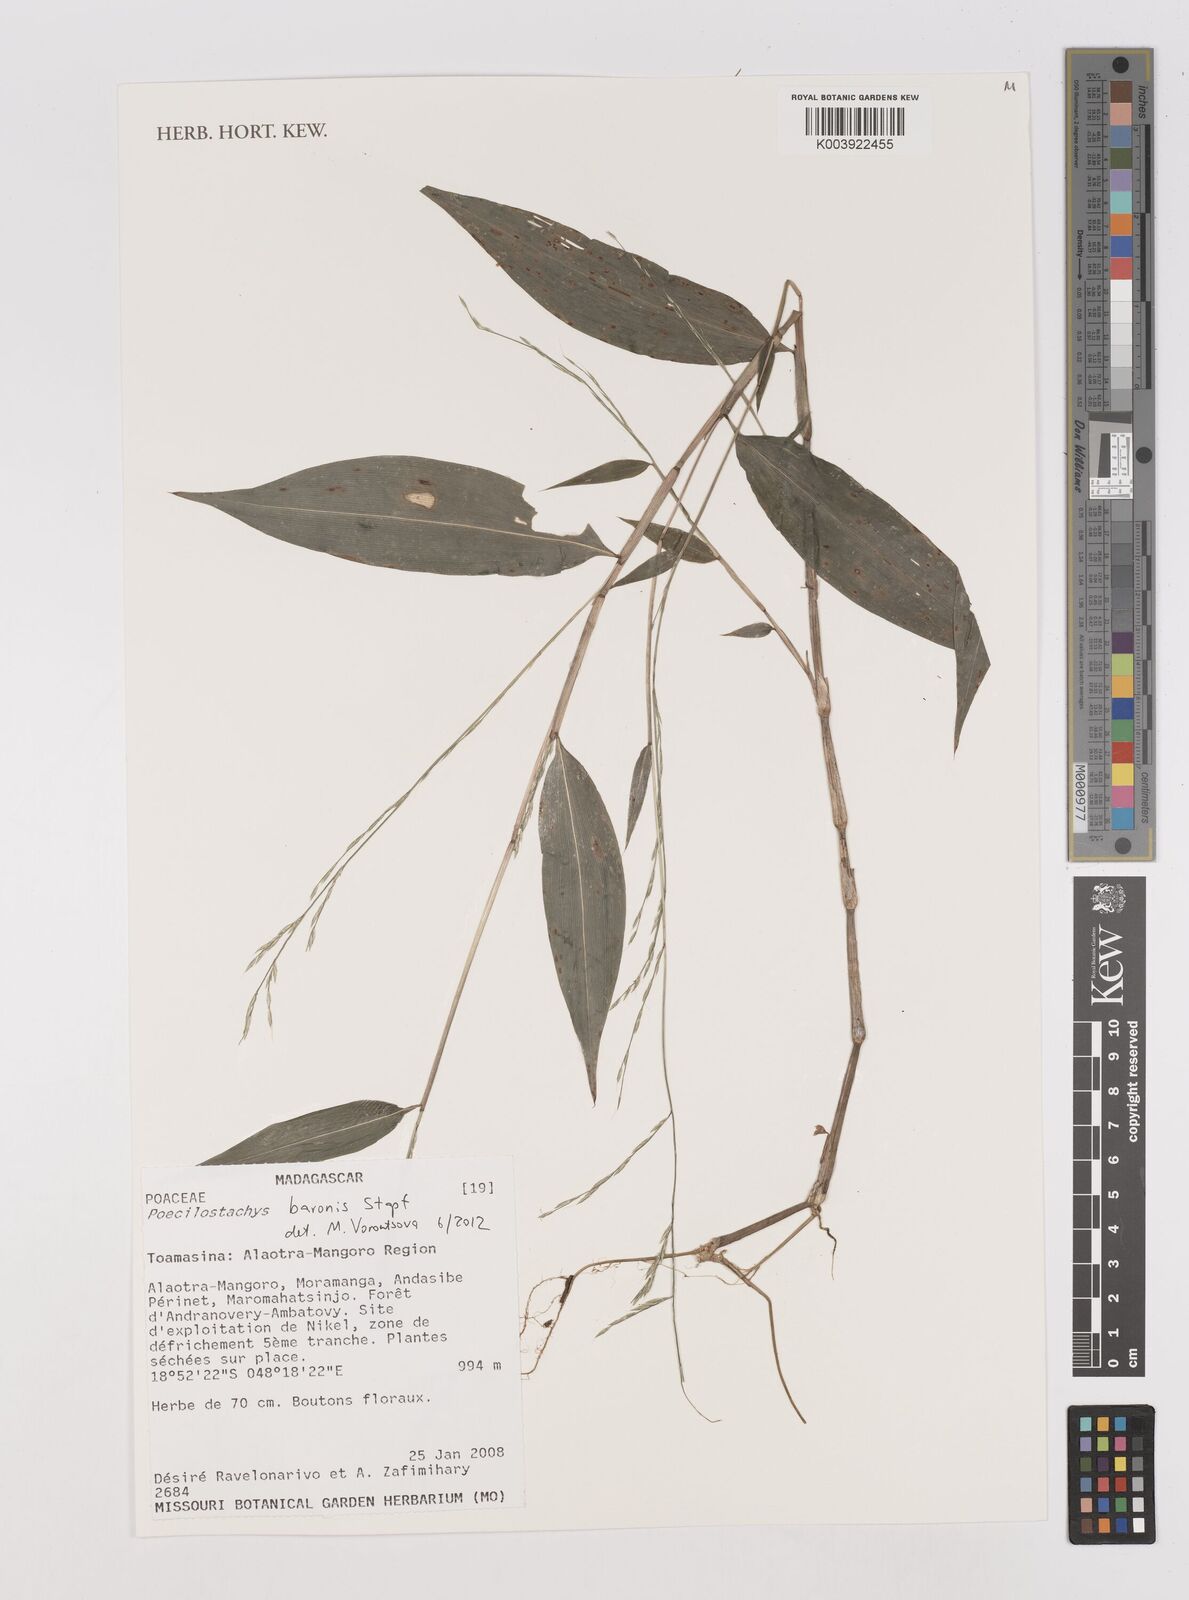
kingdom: Plantae
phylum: Tracheophyta
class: Liliopsida
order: Poales
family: Poaceae
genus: Poecilostachys
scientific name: Poecilostachys baronis
